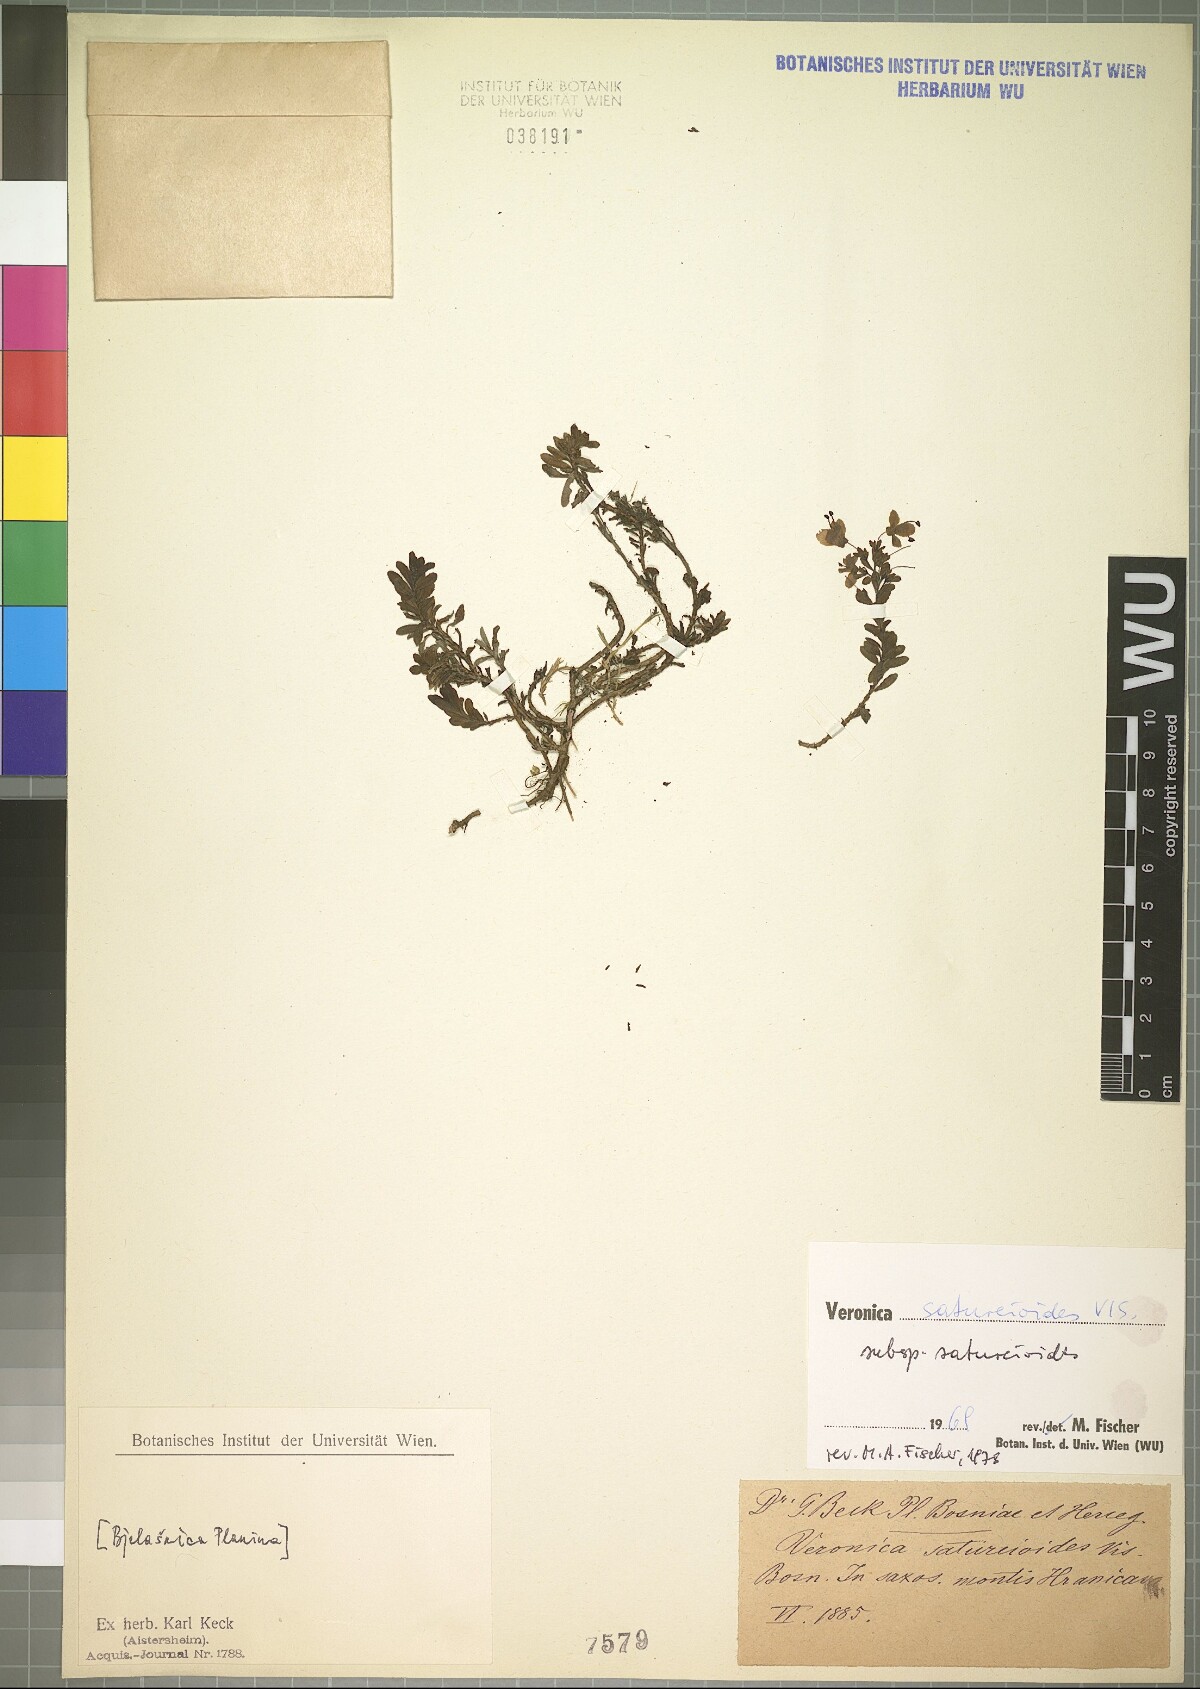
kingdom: Plantae
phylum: Tracheophyta
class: Magnoliopsida
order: Lamiales
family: Plantaginaceae
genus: Veronica
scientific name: Veronica saturejoides
